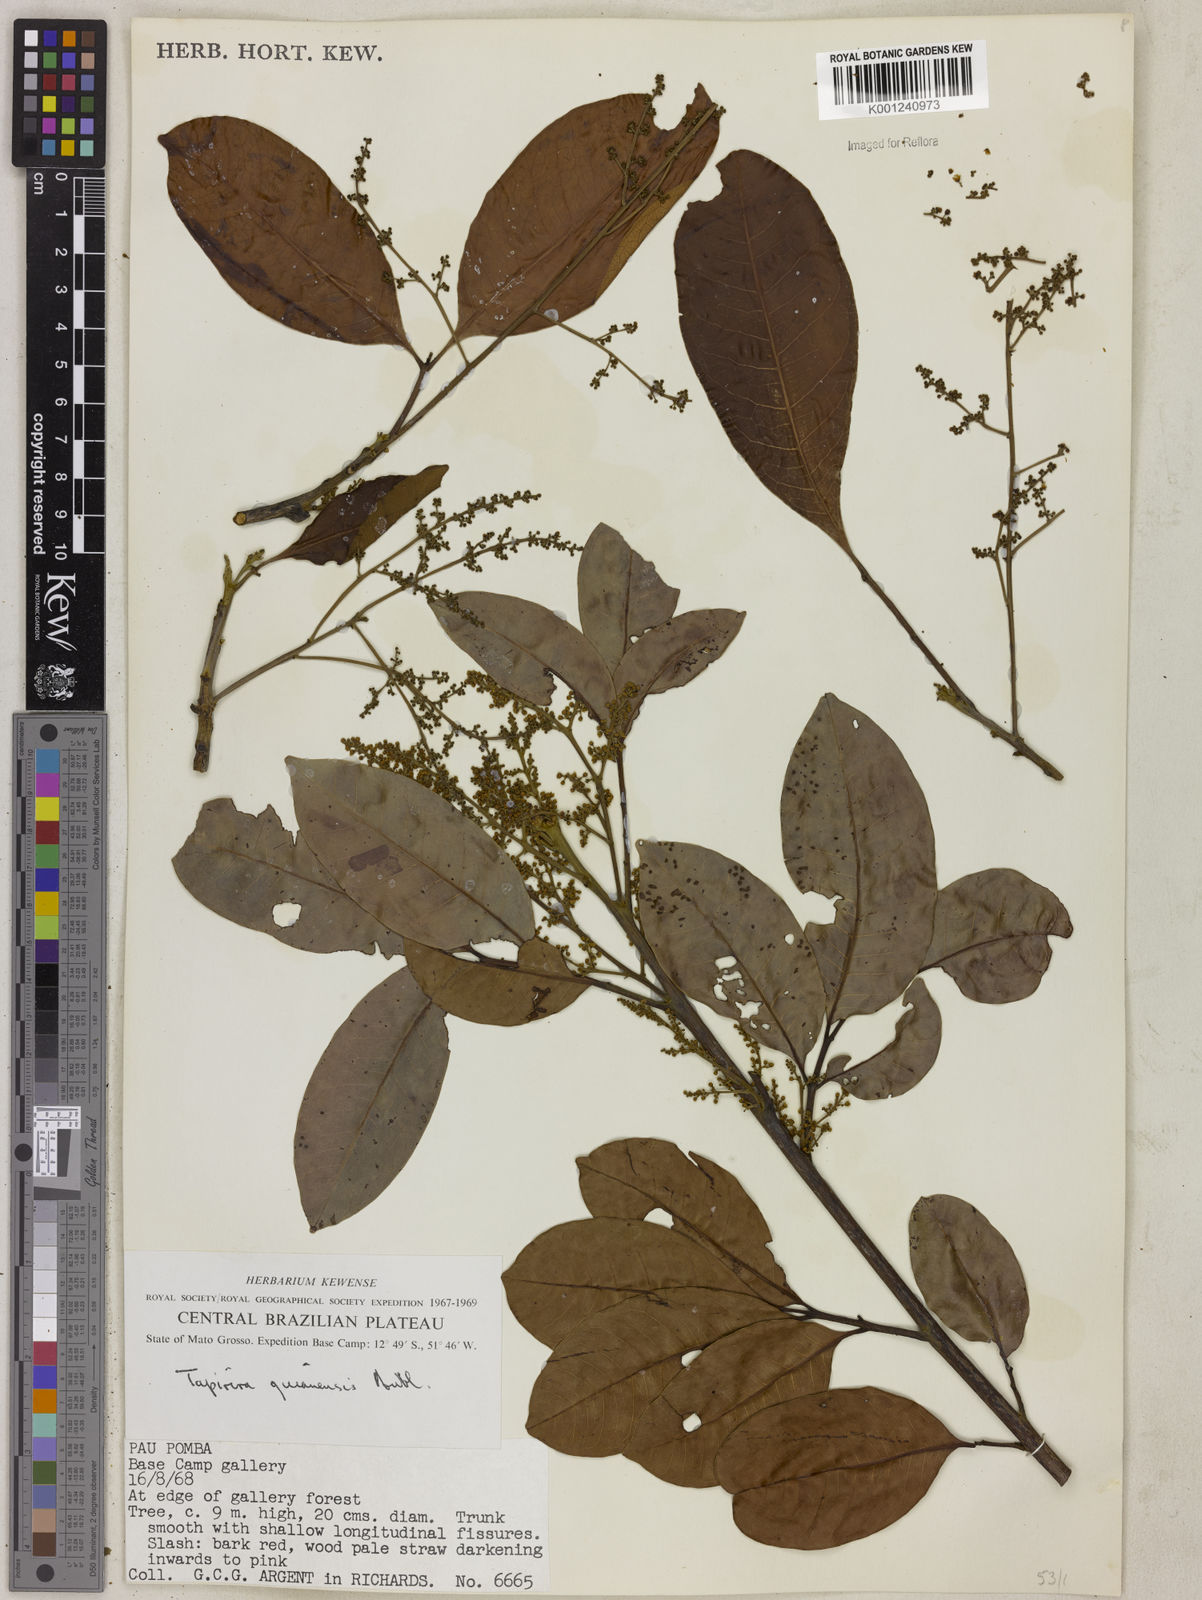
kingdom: Plantae
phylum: Tracheophyta
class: Magnoliopsida
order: Sapindales
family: Anacardiaceae
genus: Tapirira
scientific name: Tapirira guianensis
